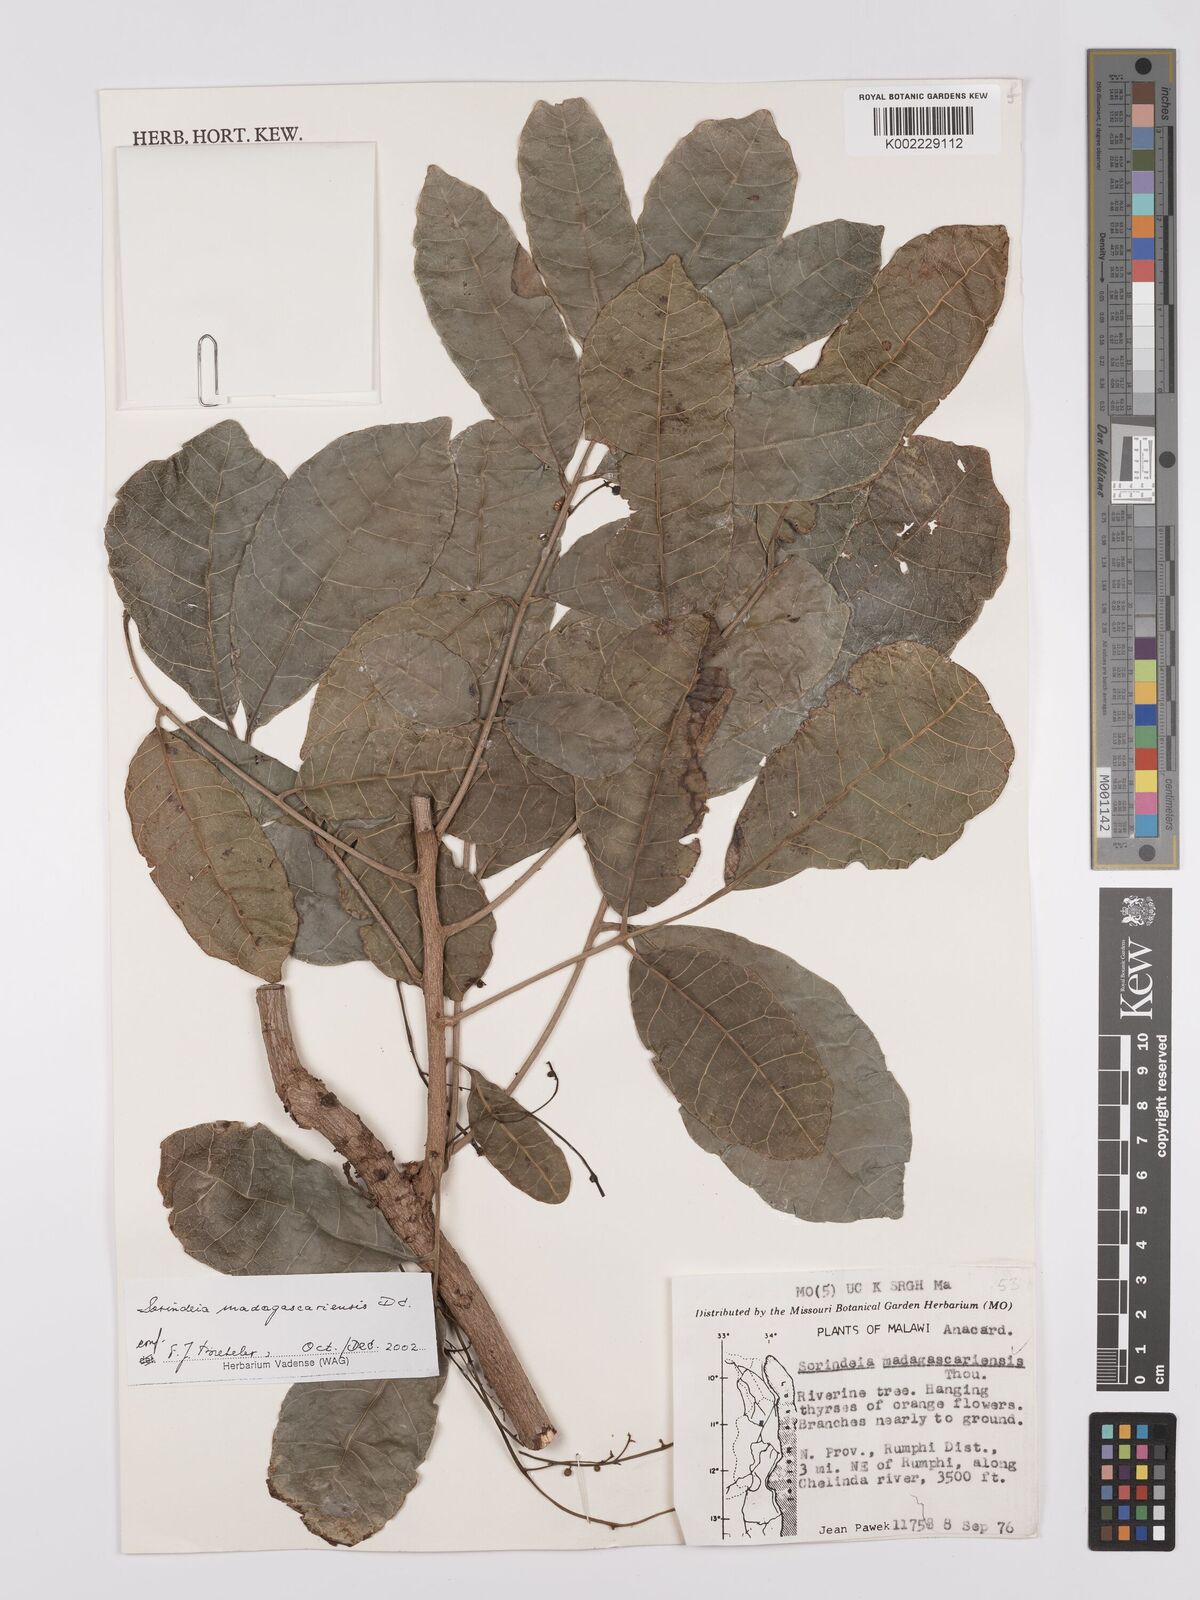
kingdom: Plantae
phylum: Tracheophyta
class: Magnoliopsida
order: Sapindales
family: Anacardiaceae
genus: Sorindeia
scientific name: Sorindeia madagascariensis
